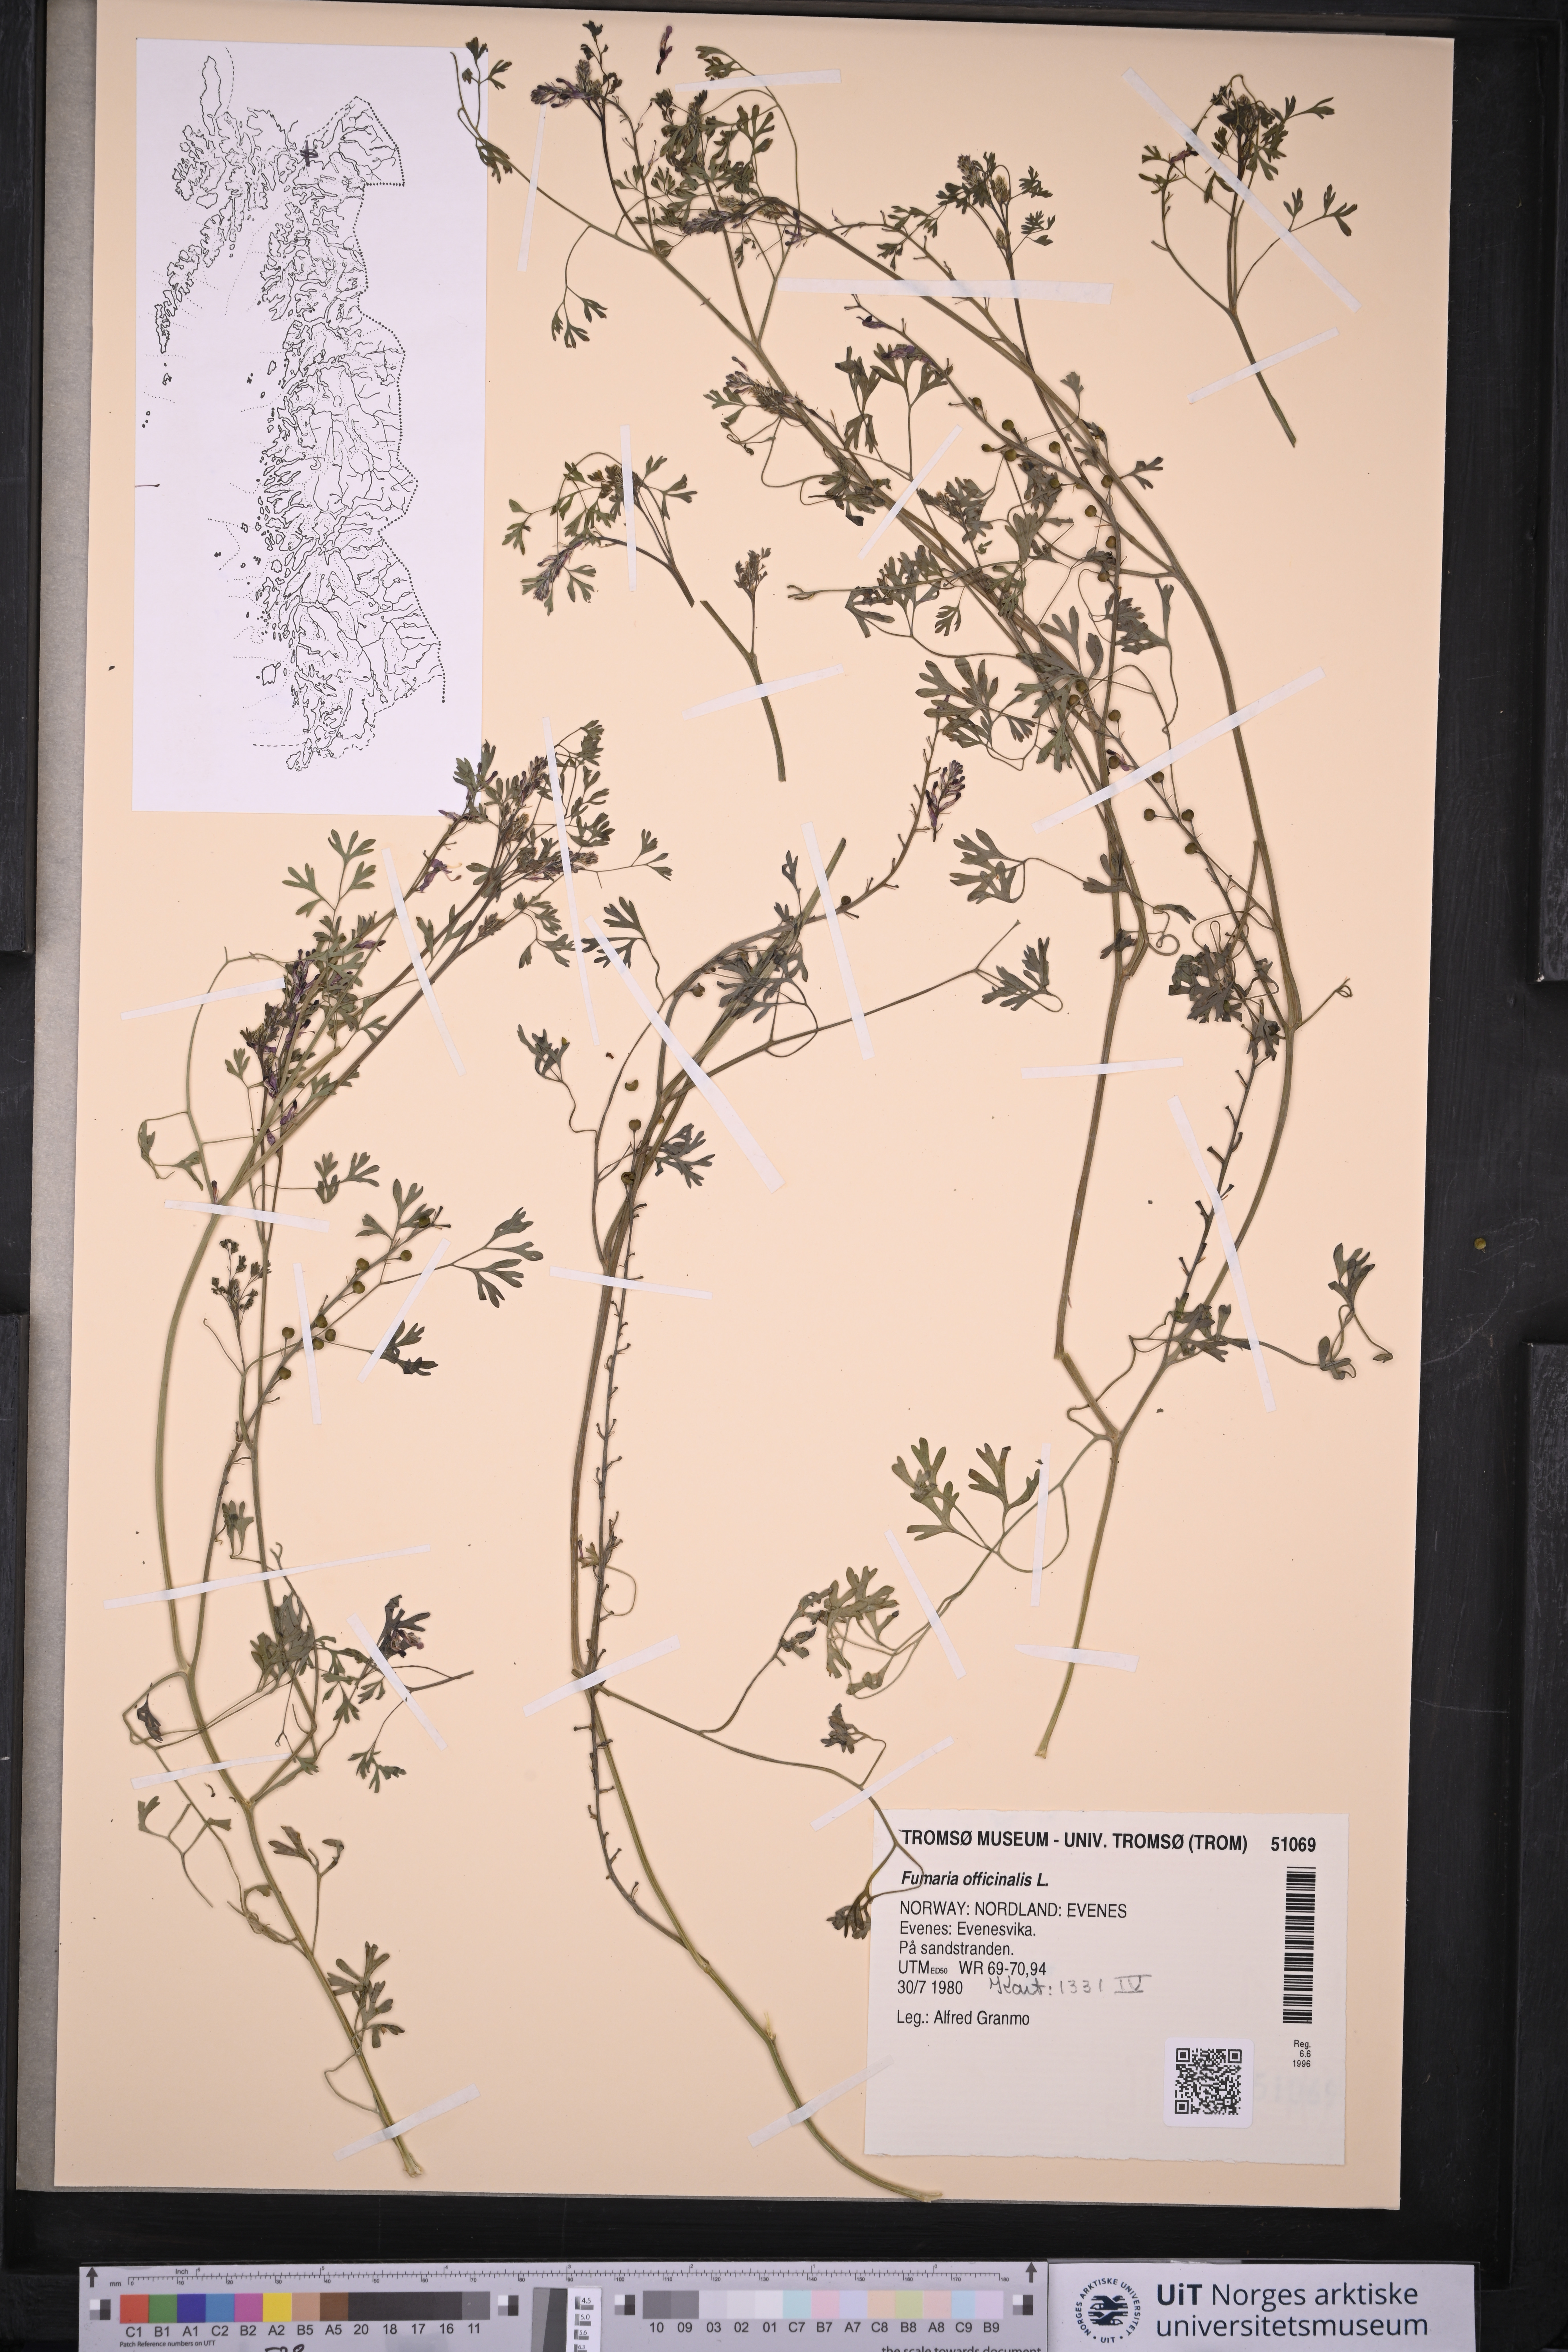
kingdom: Plantae
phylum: Tracheophyta
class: Magnoliopsida
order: Ranunculales
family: Papaveraceae
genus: Fumaria
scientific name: Fumaria officinalis
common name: Common fumitory
